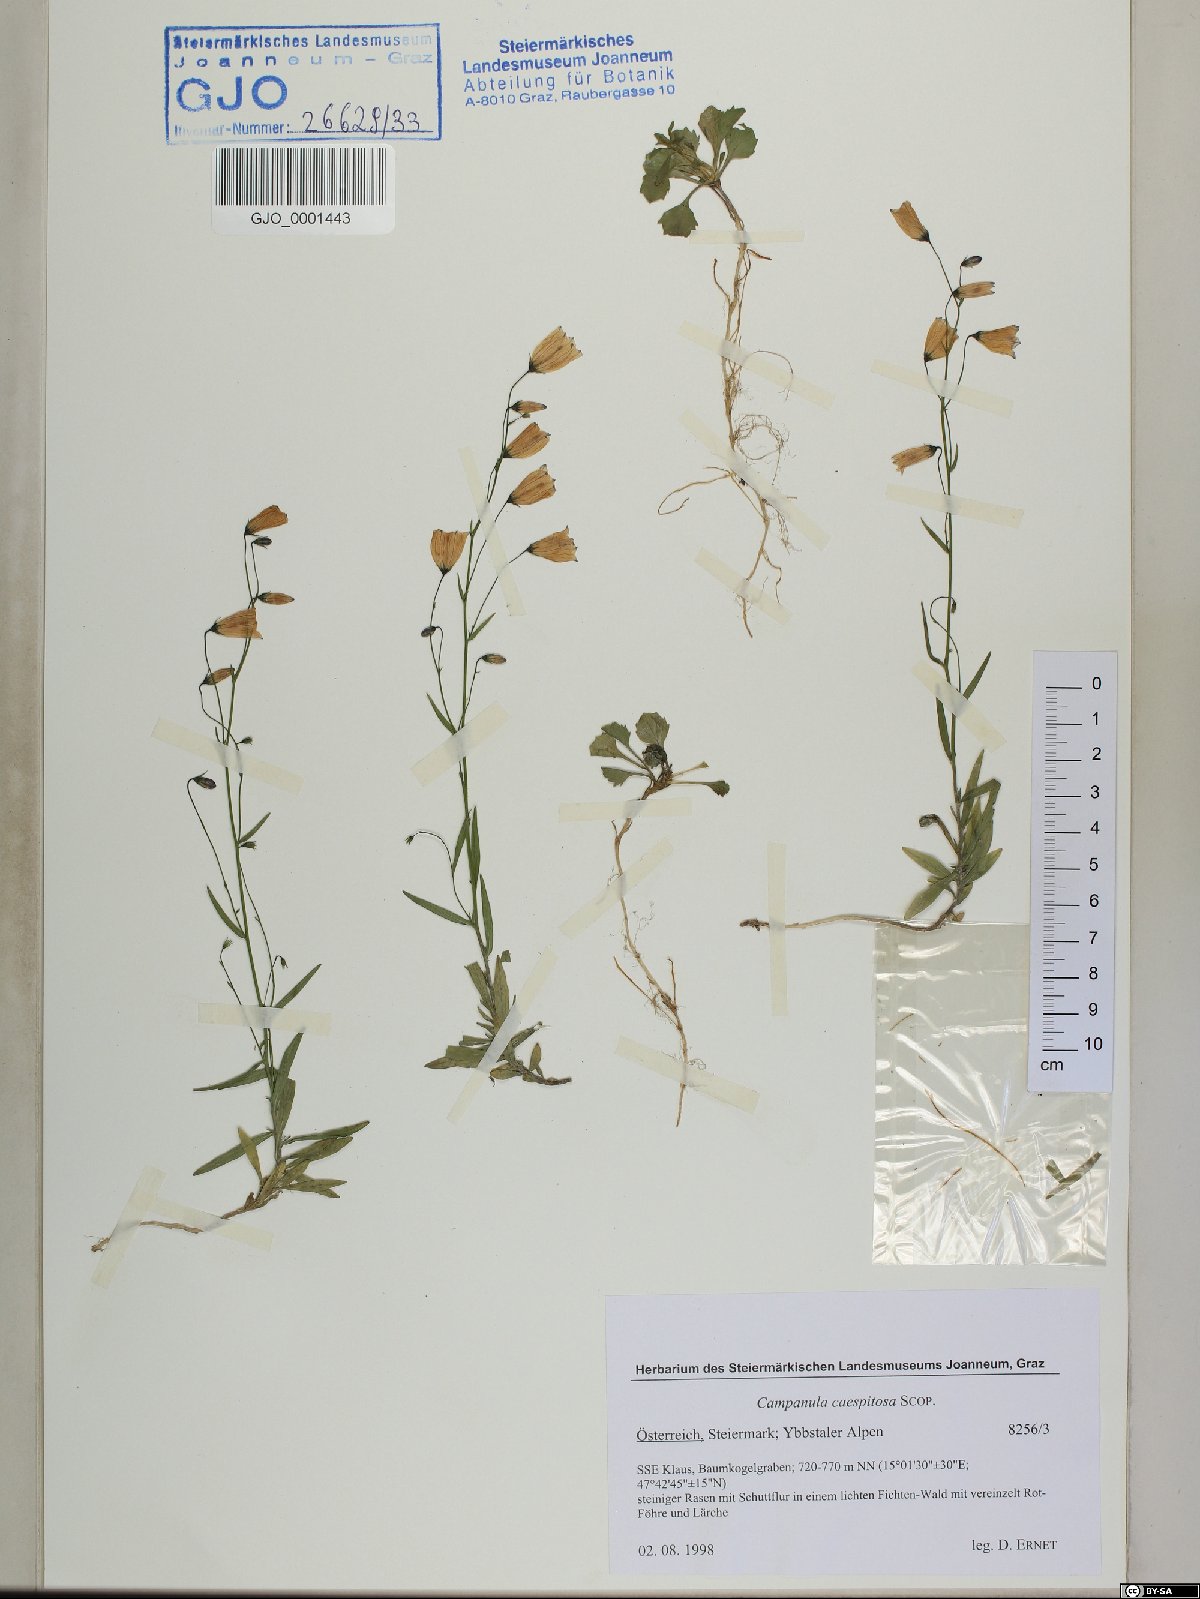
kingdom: Plantae
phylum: Tracheophyta
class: Magnoliopsida
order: Asterales
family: Campanulaceae
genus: Campanula
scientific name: Campanula cespitosa
